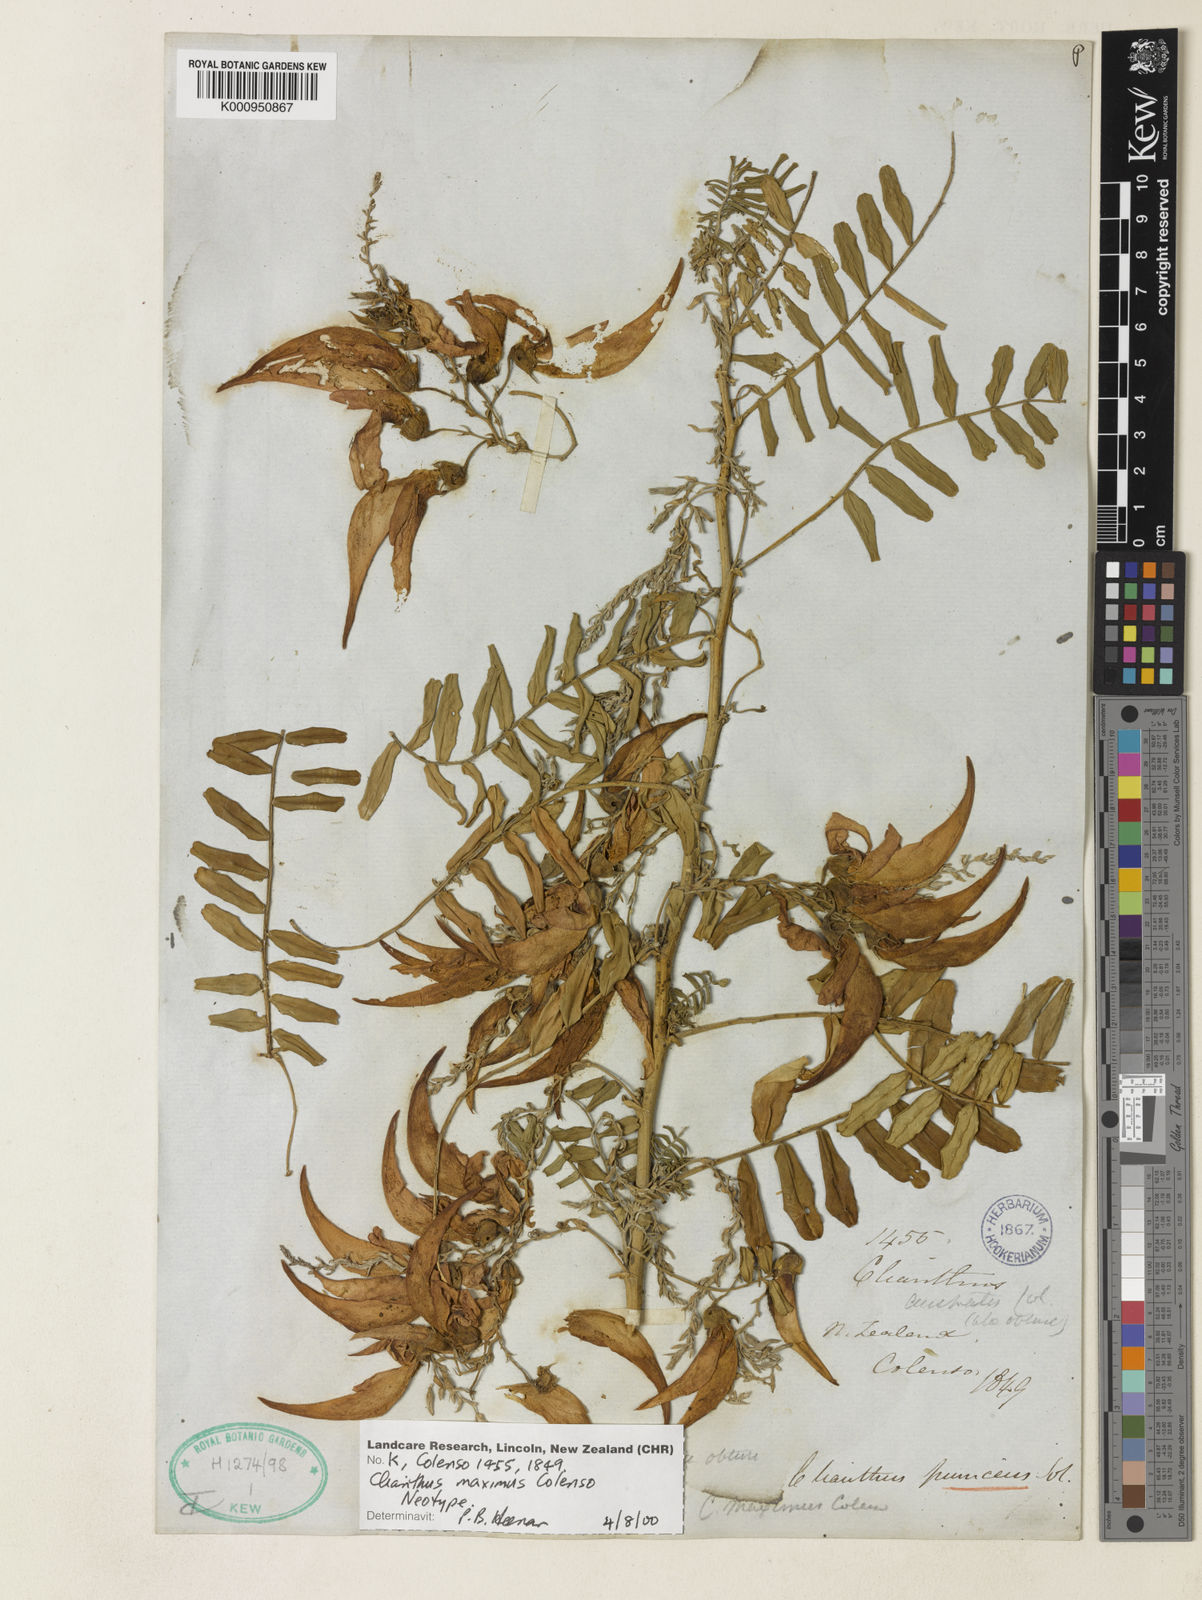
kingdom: Plantae
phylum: Tracheophyta
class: Magnoliopsida
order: Fabales
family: Fabaceae
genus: Clianthus
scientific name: Clianthus puniceus
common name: Kaka-beak
